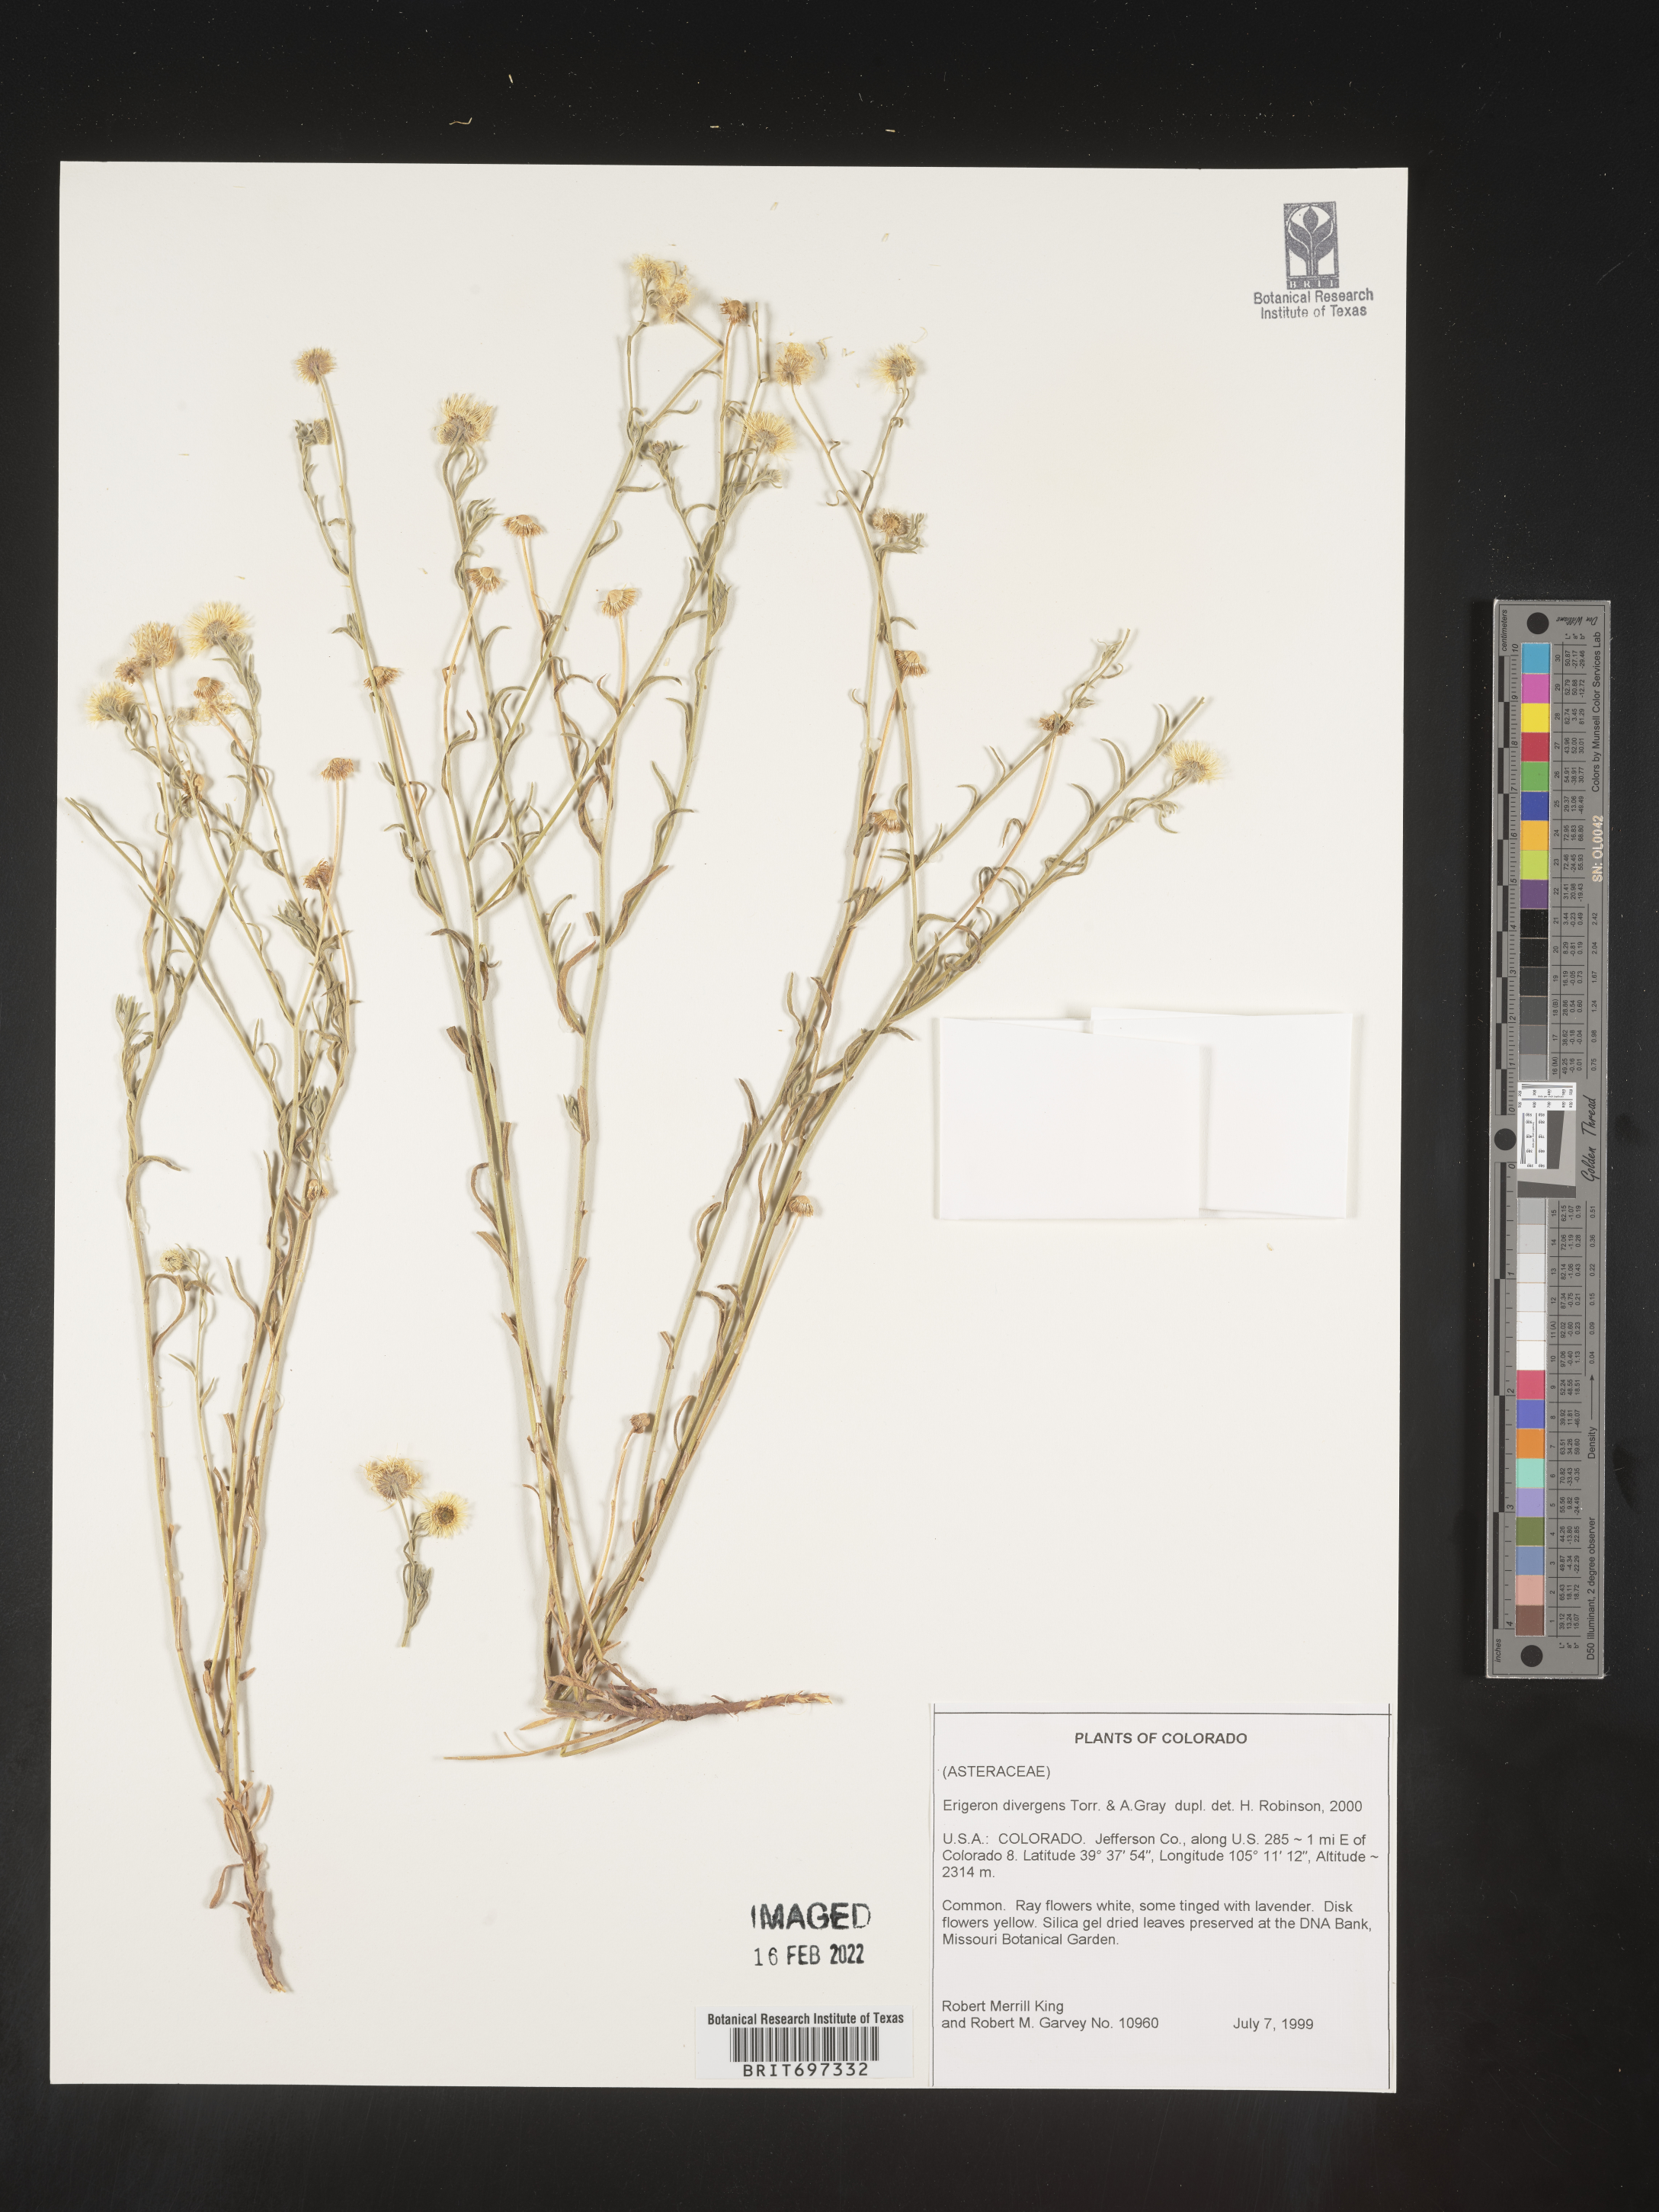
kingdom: Plantae
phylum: Tracheophyta
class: Magnoliopsida
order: Asterales
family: Asteraceae
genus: Erigeron
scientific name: Erigeron divergens
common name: Diffuse fleabane
